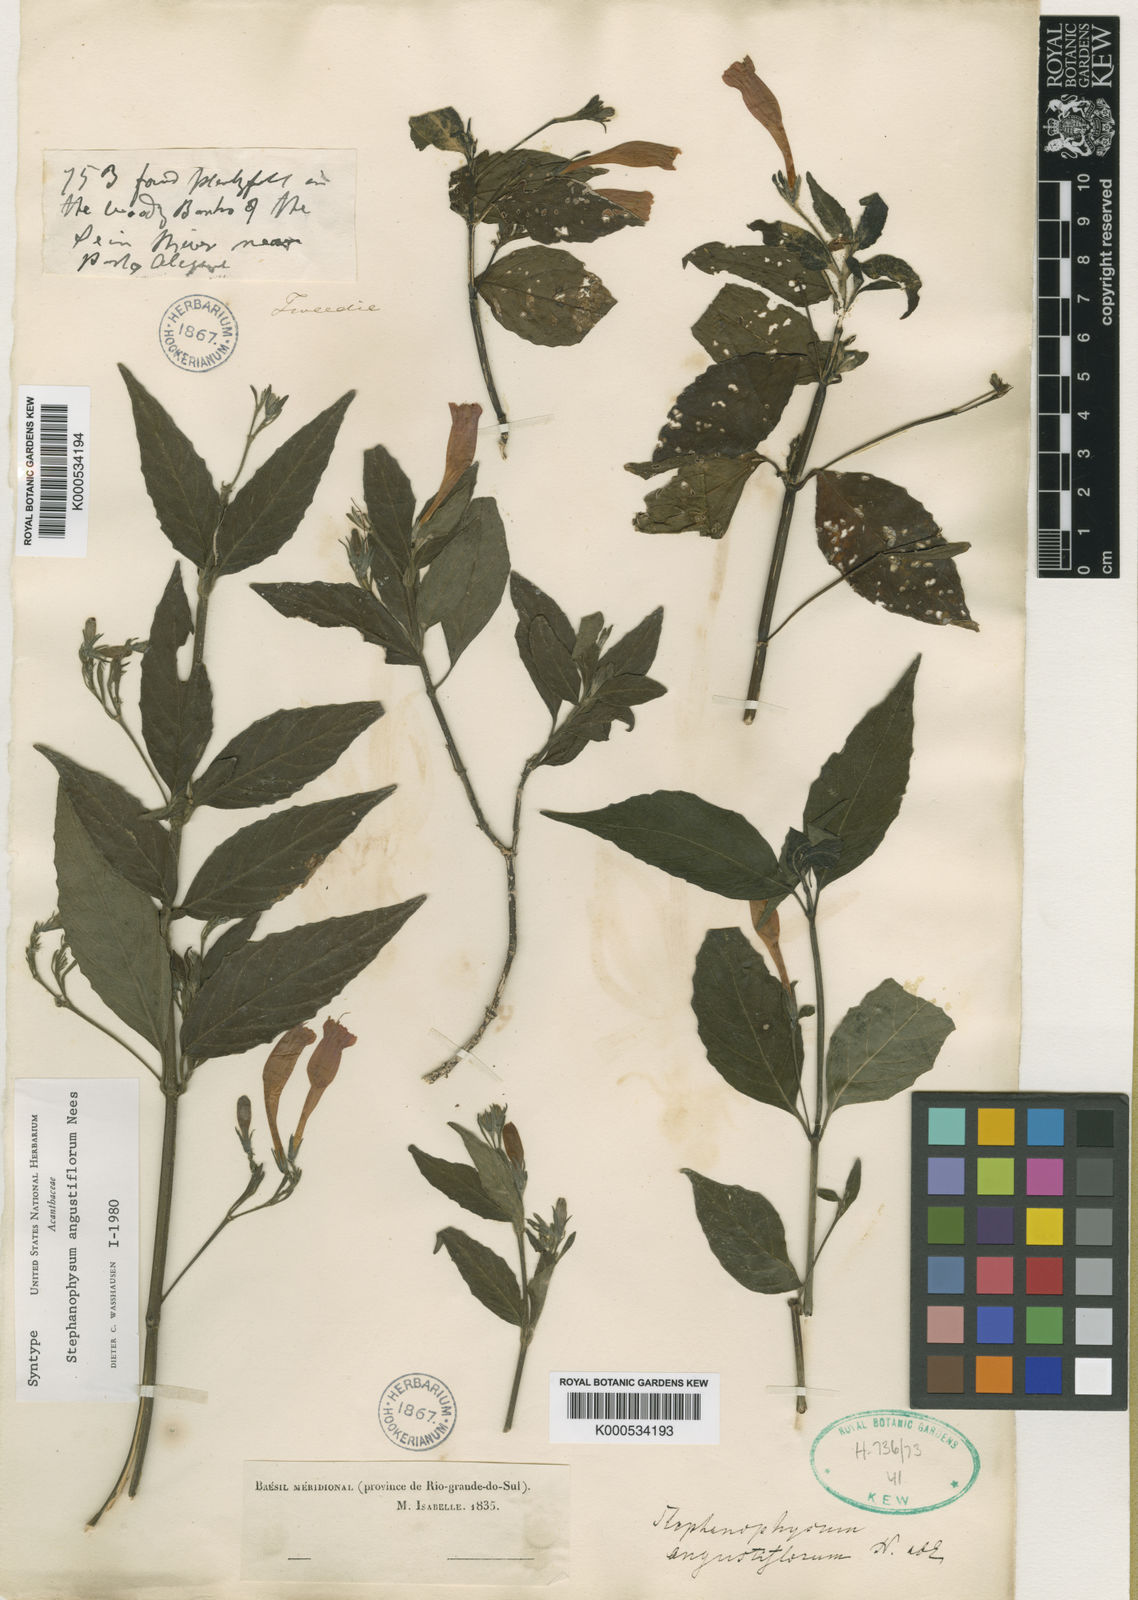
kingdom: Plantae
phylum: Tracheophyta
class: Magnoliopsida
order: Lamiales
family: Acanthaceae
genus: Ruellia
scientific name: Ruellia angustiflora
